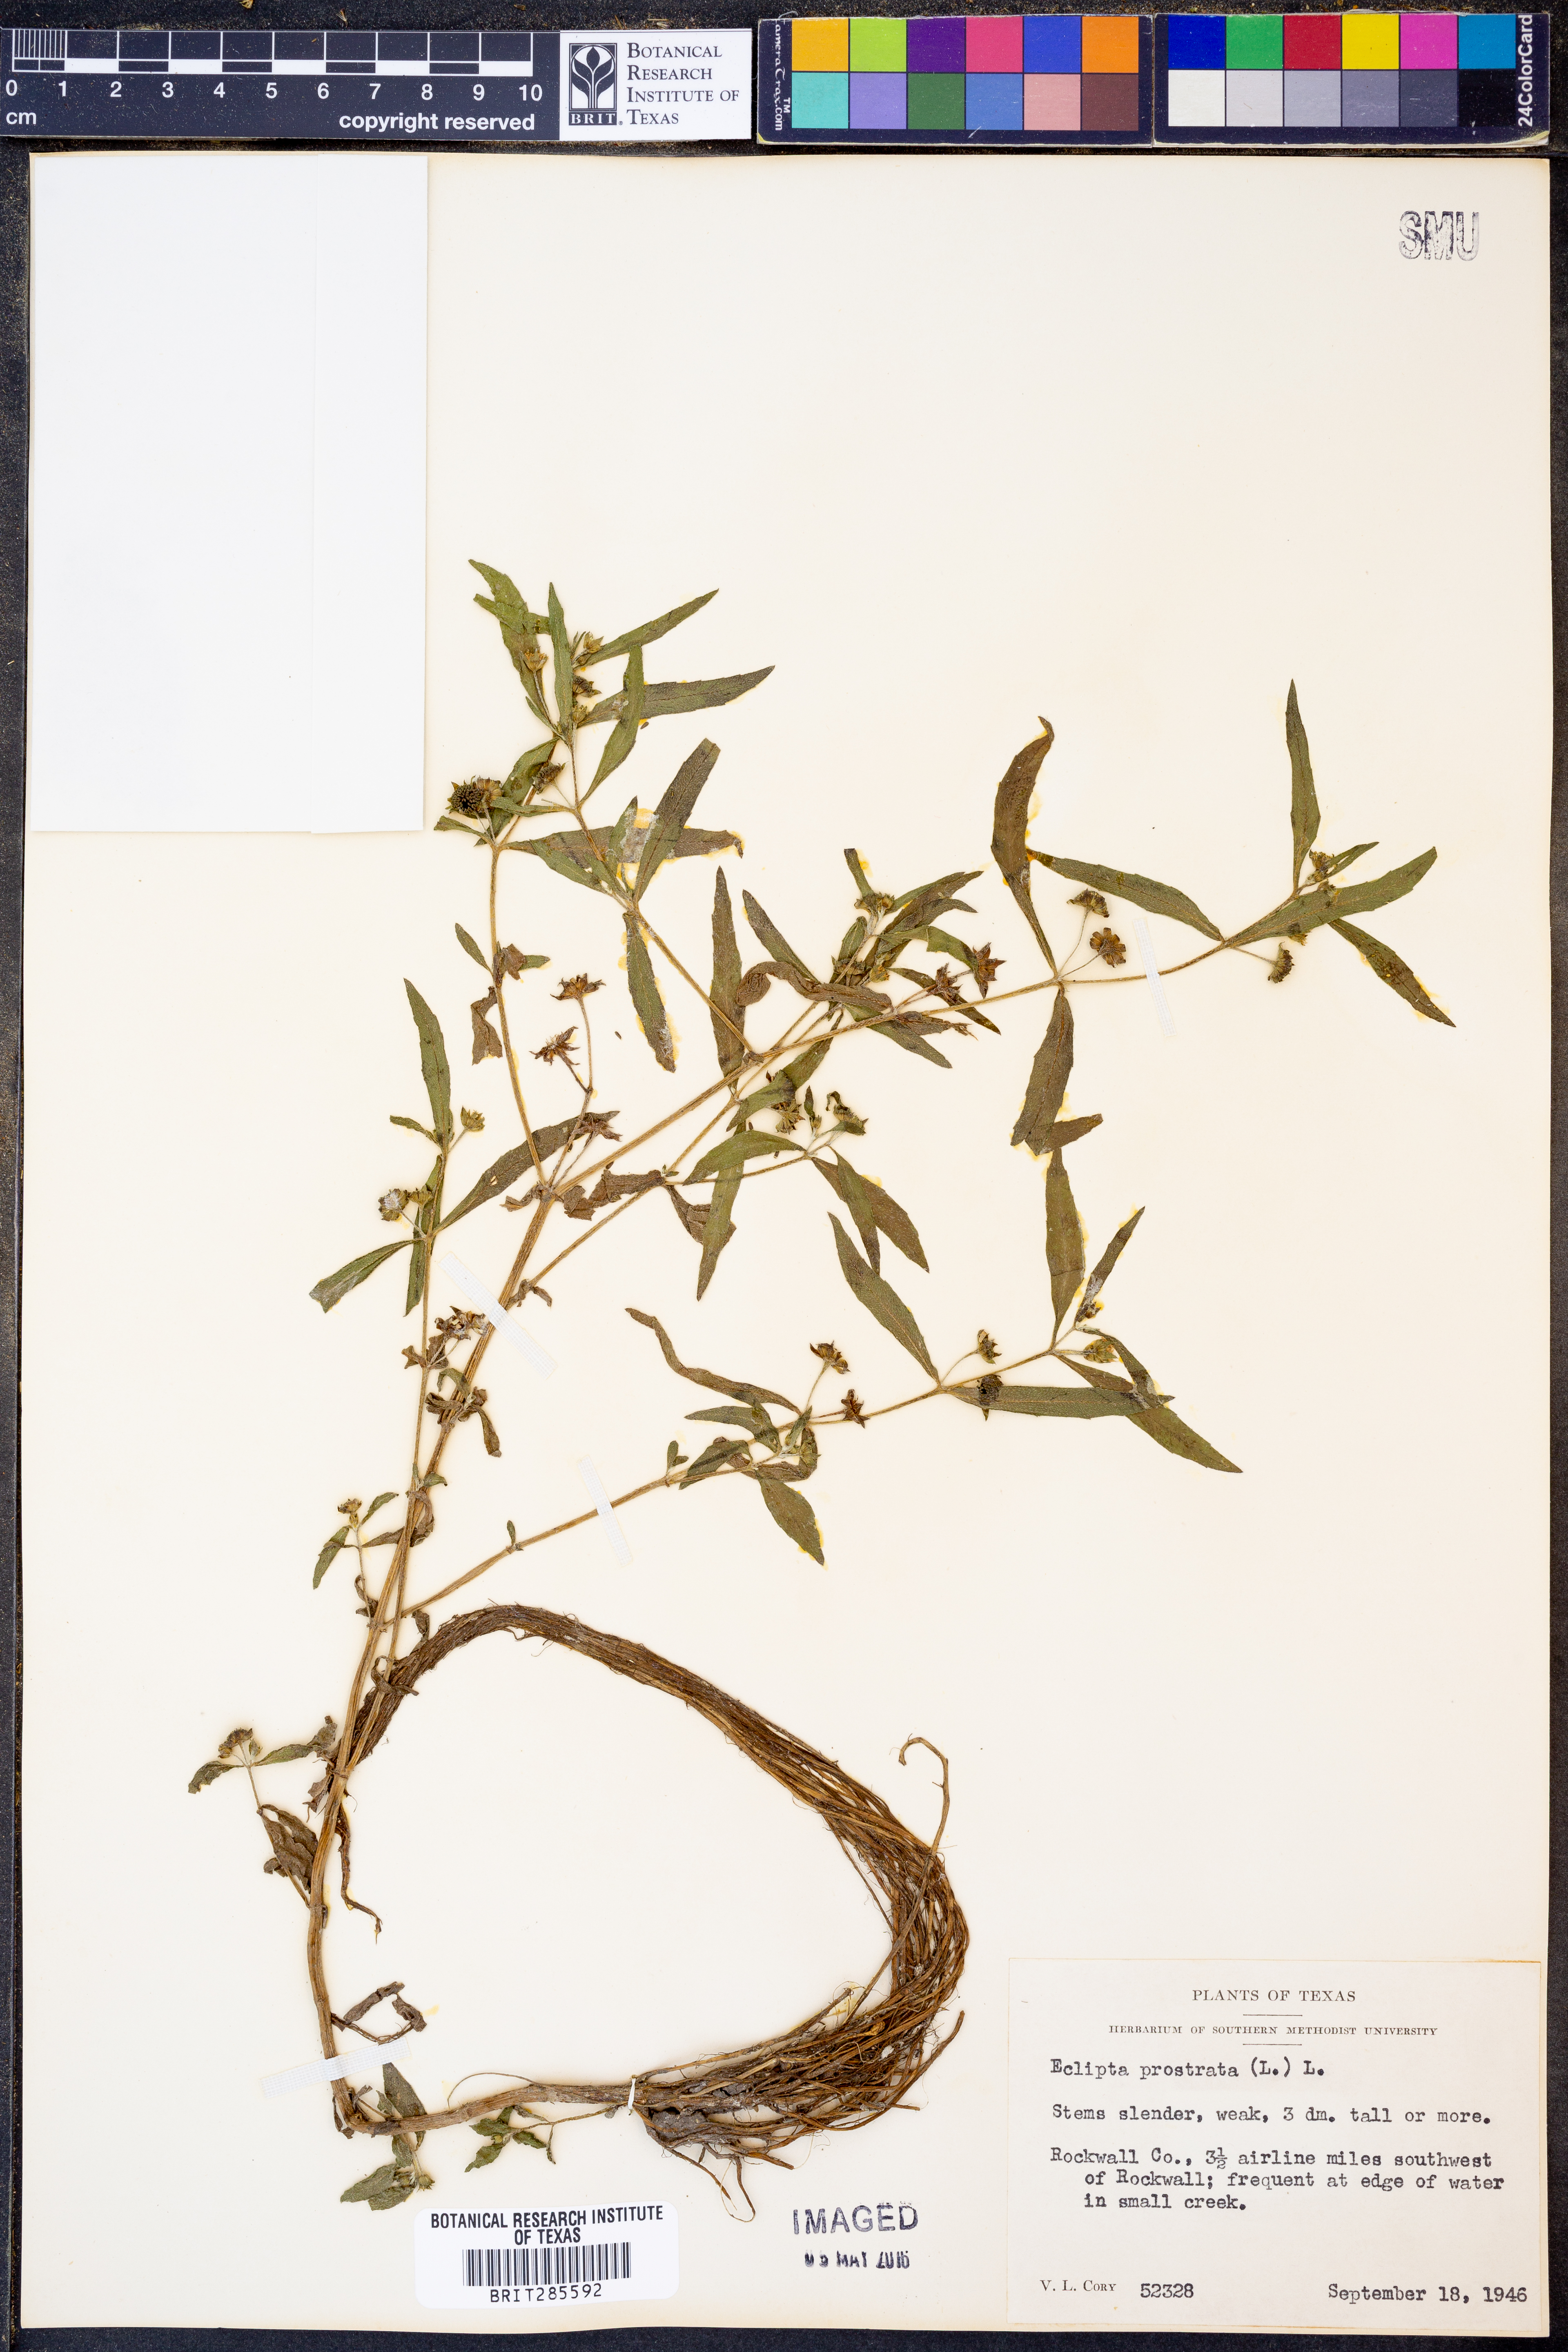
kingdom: Plantae
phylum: Tracheophyta
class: Magnoliopsida
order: Asterales
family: Asteraceae
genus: Eclipta
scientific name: Eclipta prostrata
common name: False daisy
